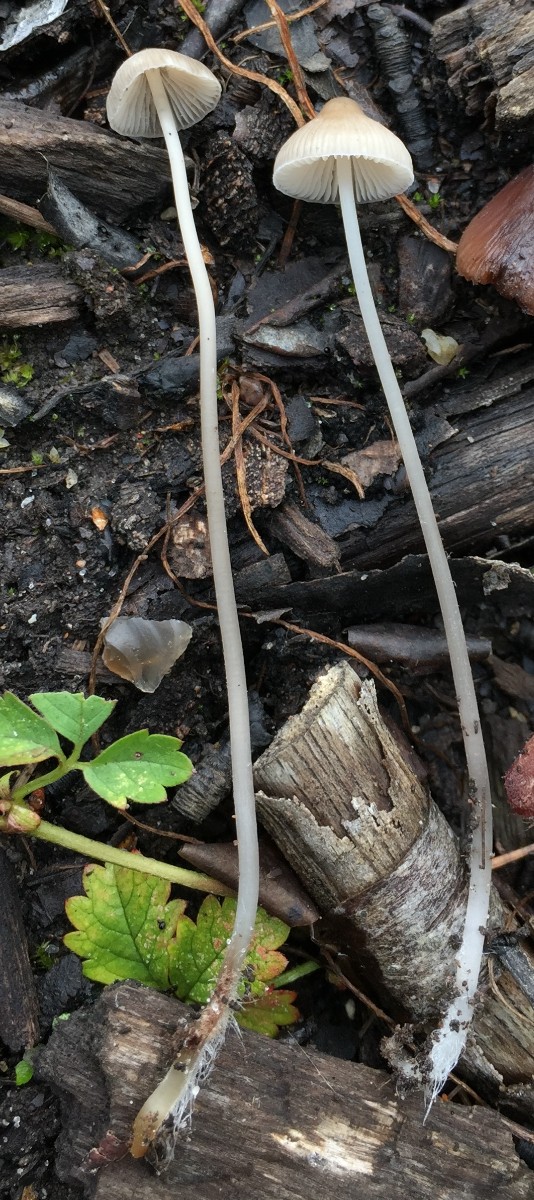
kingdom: Fungi
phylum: Basidiomycota
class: Agaricomycetes
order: Agaricales
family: Mycenaceae
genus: Mycena
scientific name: Mycena vitilis
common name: blankstokket huesvamp
